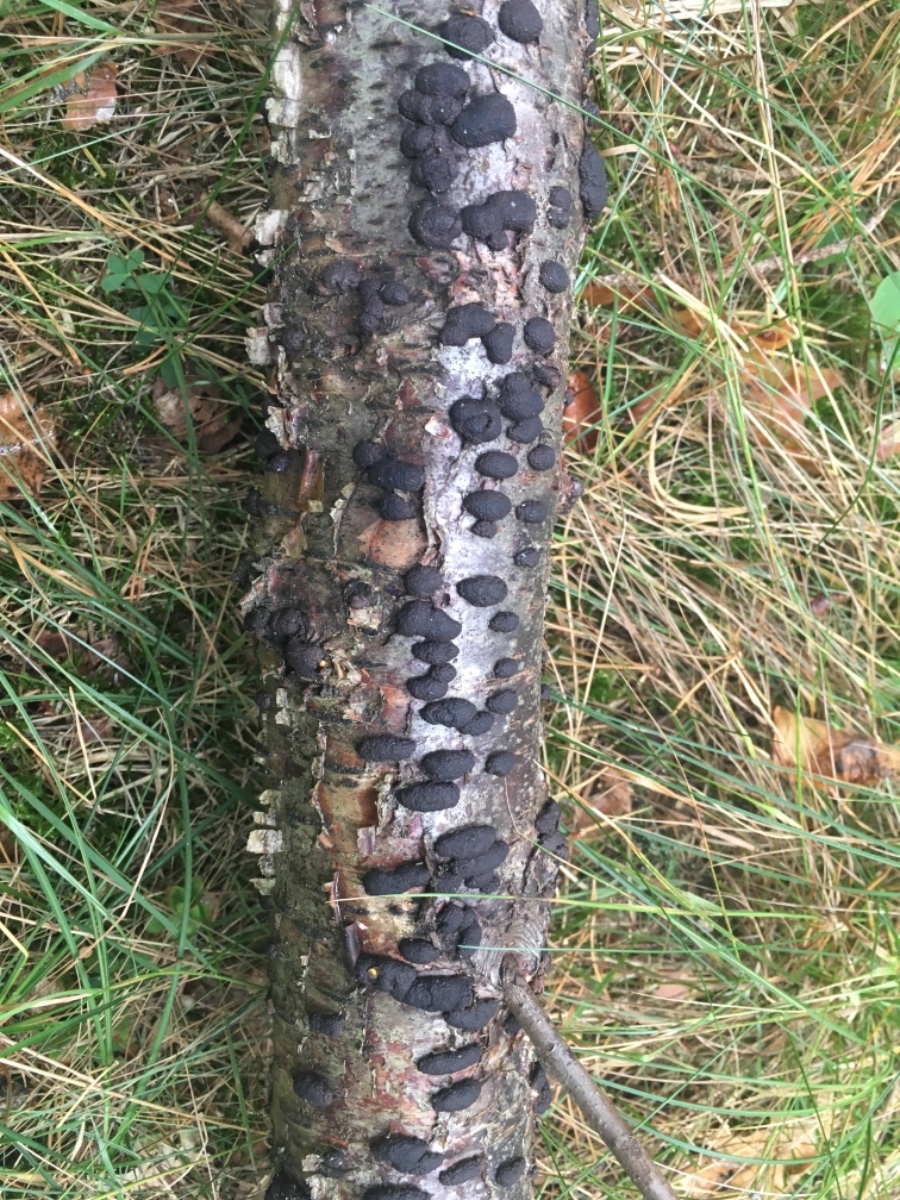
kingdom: Fungi
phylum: Ascomycota
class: Sordariomycetes
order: Xylariales
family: Hypoxylaceae
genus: Jackrogersella
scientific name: Jackrogersella multiformis
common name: foranderlig kulbær
